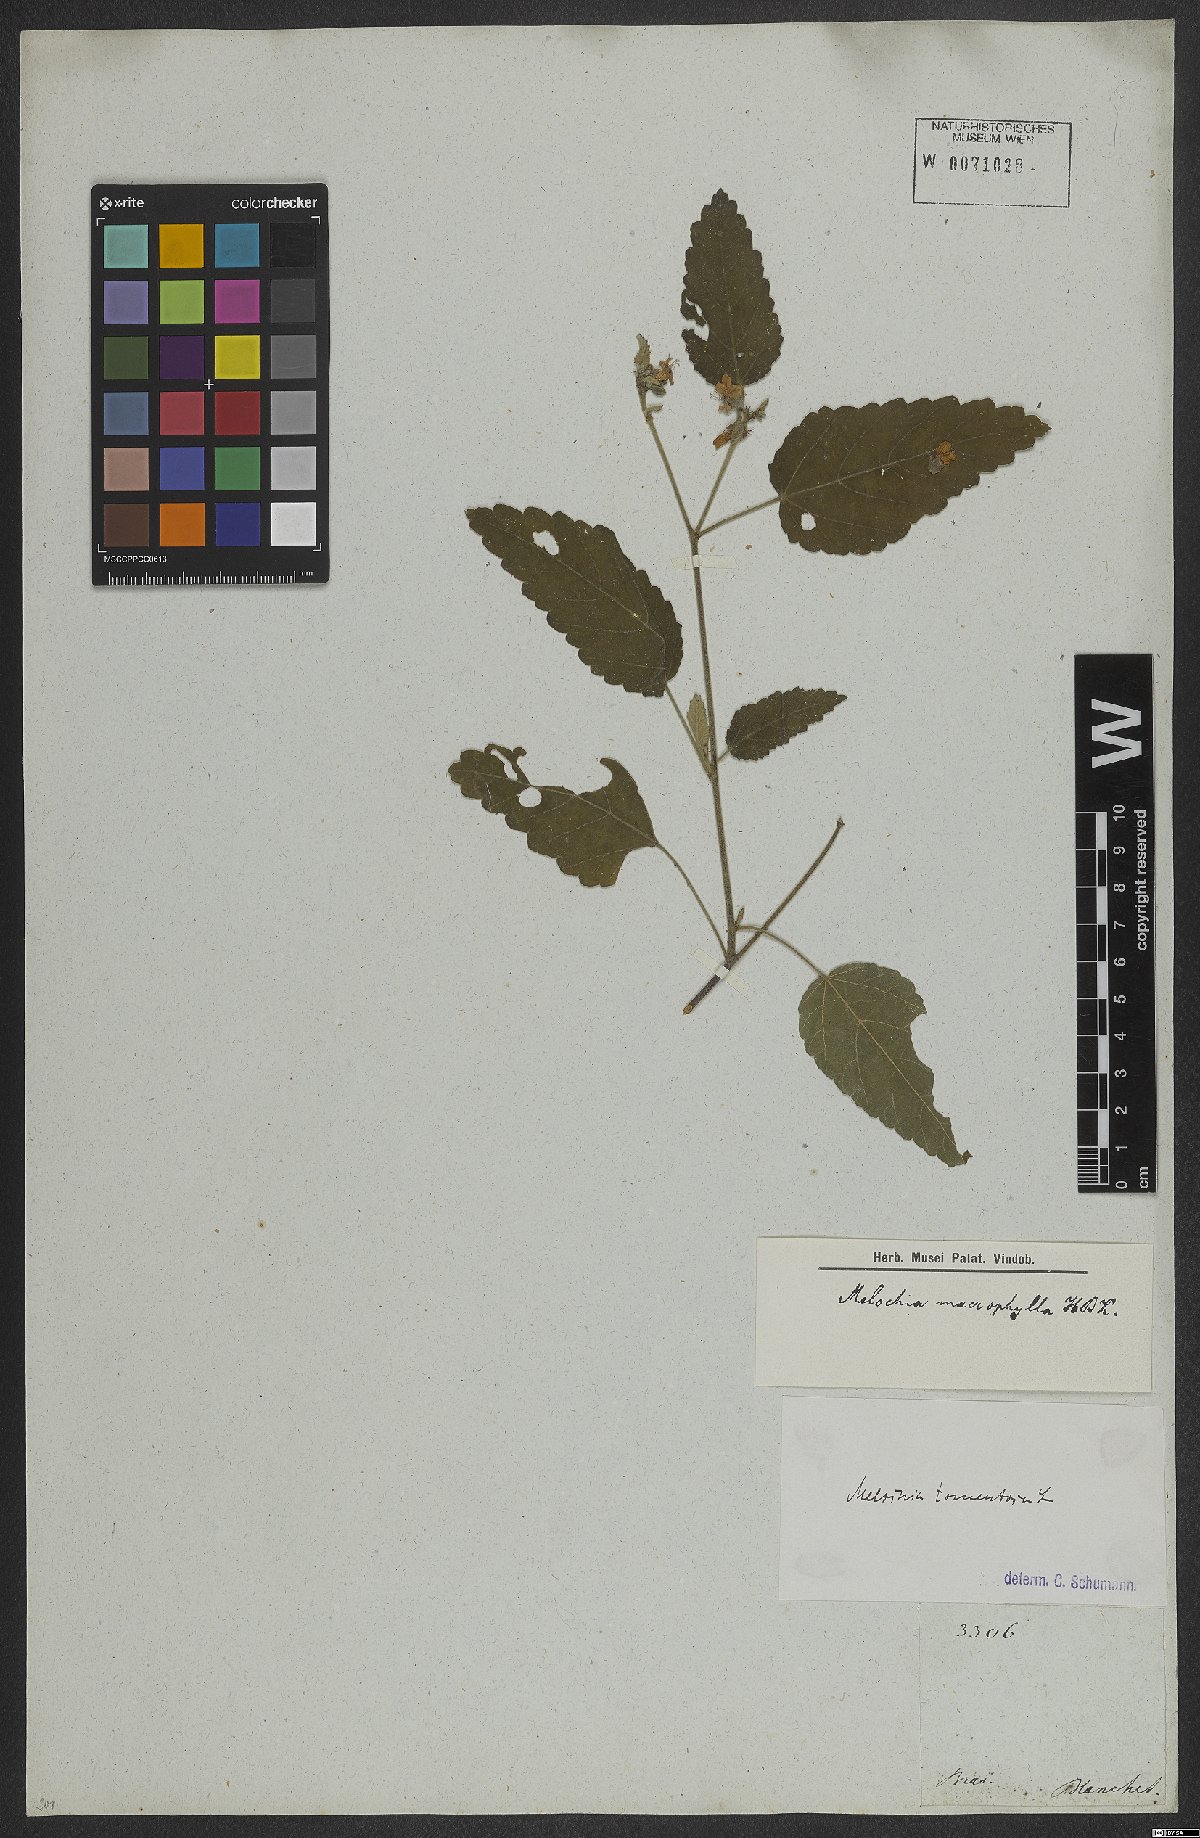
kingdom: Plantae
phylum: Tracheophyta
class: Magnoliopsida
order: Malvales
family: Malvaceae
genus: Melochia
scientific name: Melochia caracasana
